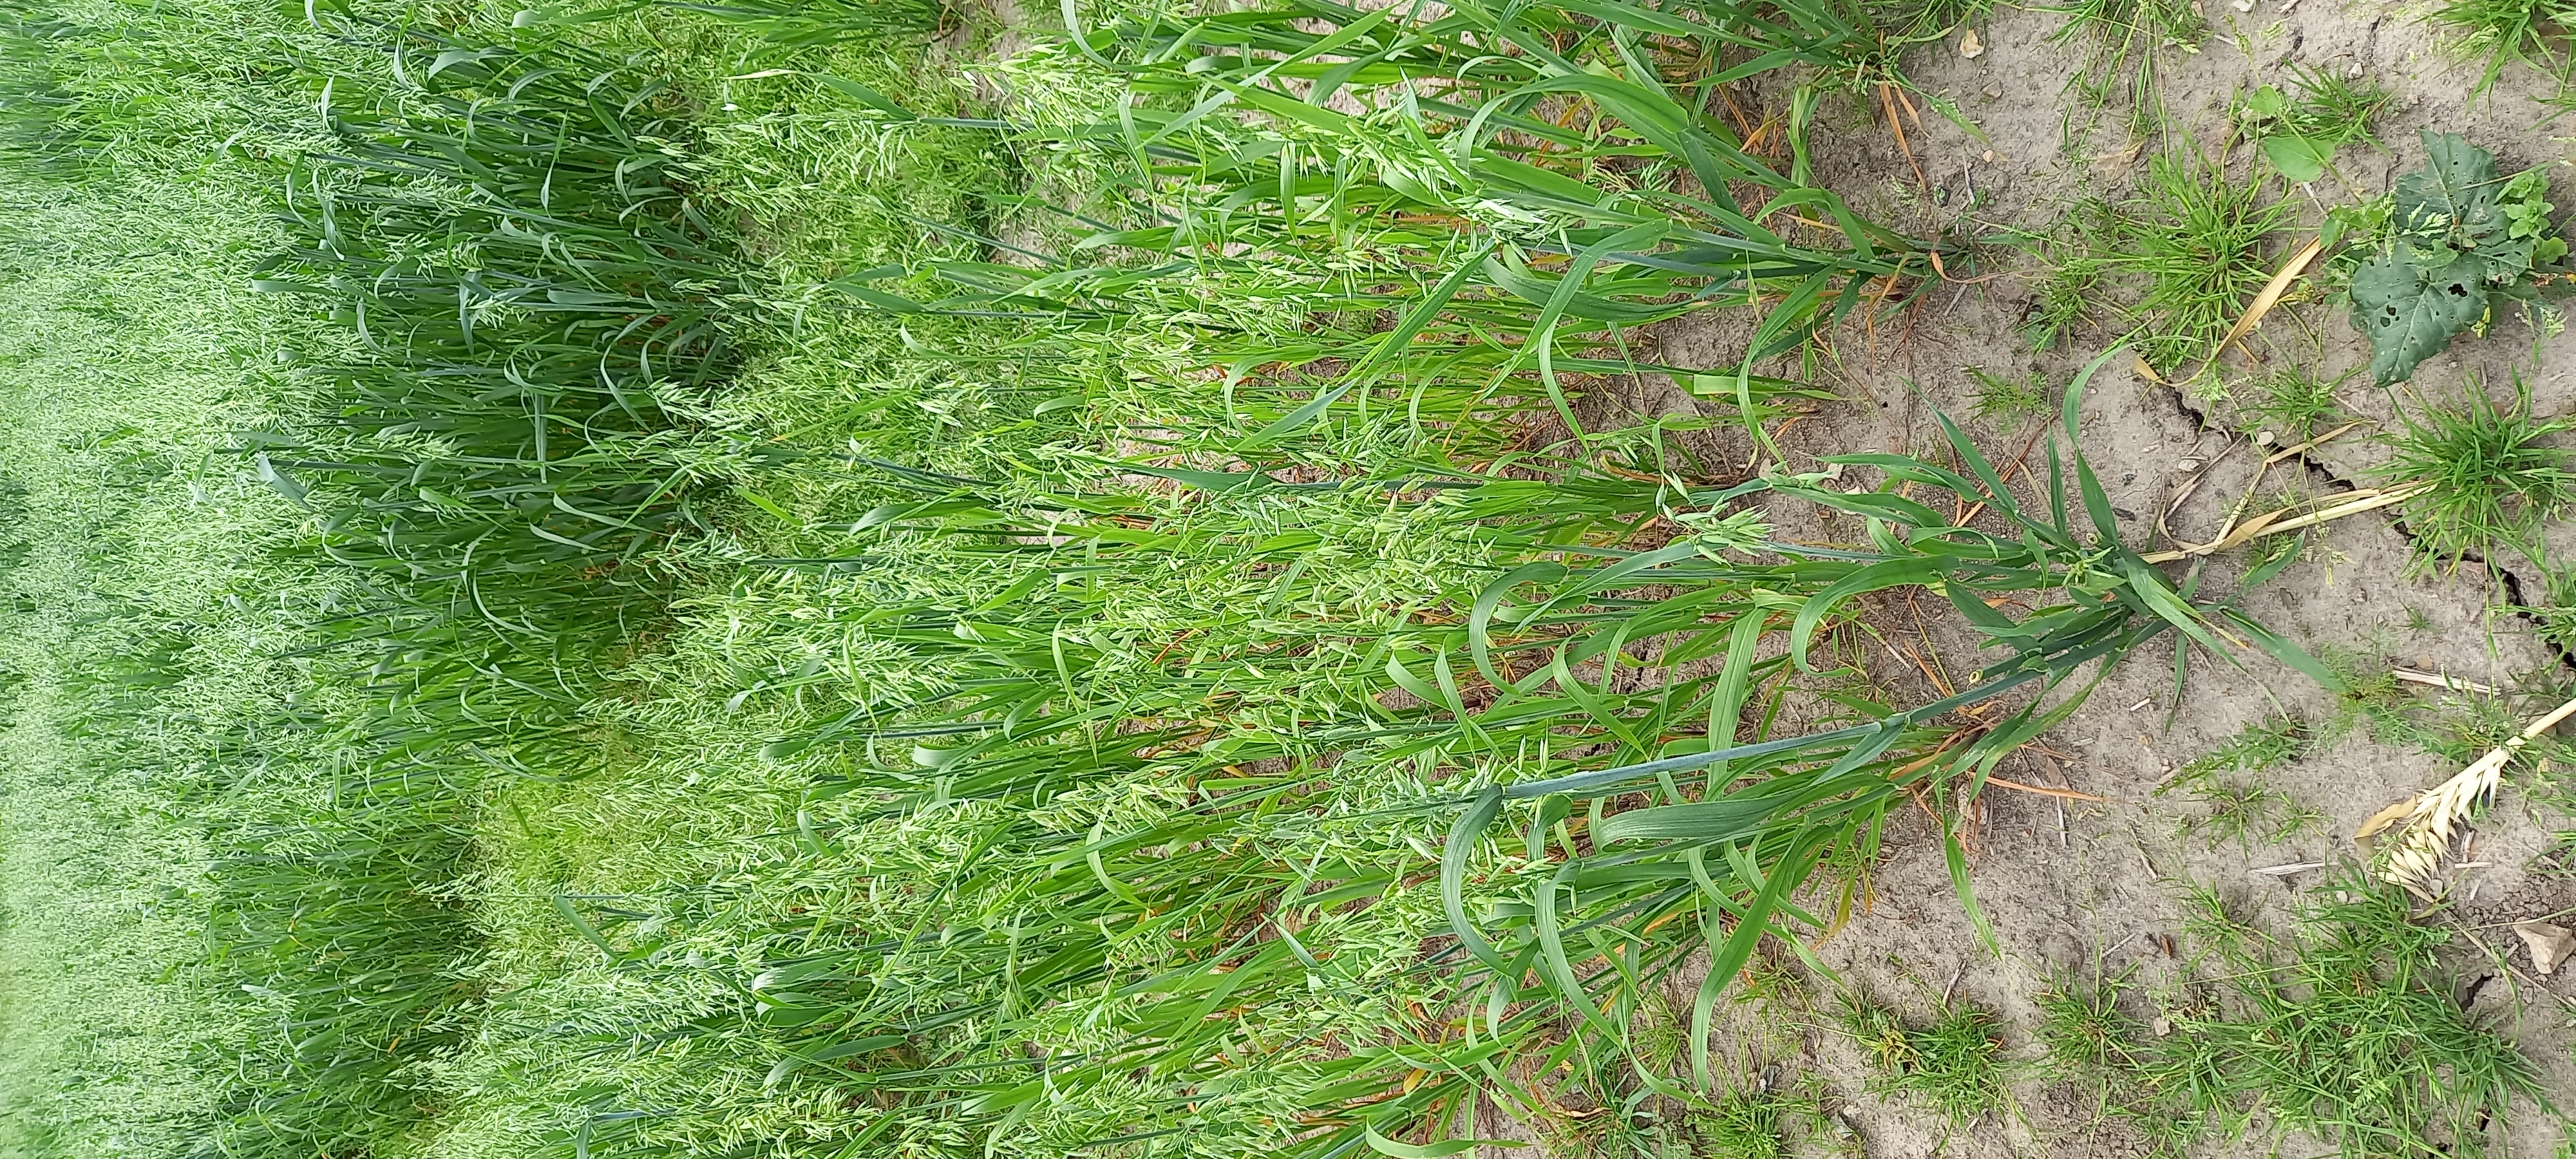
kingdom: Plantae
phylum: Tracheophyta
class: Liliopsida
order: Poales
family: Poaceae
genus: Avena
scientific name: Avena sativa
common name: Oat
